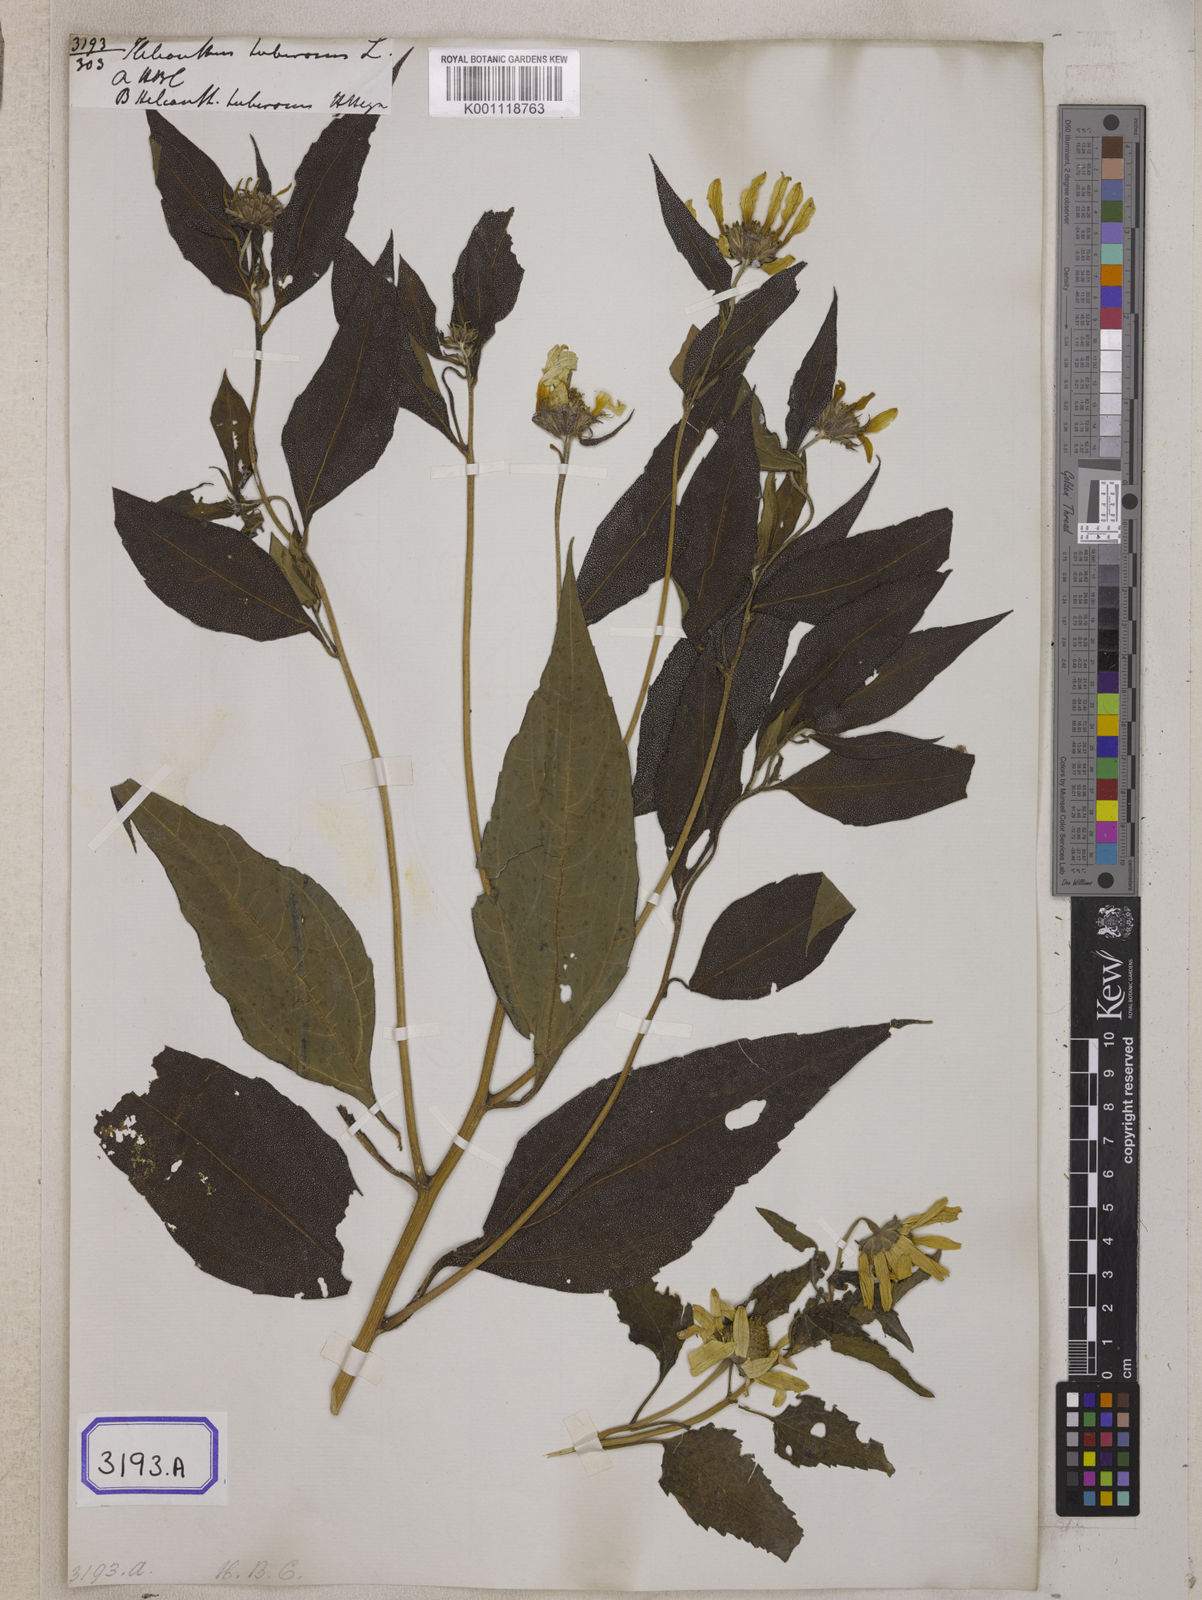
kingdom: Plantae
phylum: Tracheophyta
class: Magnoliopsida
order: Asterales
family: Asteraceae
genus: Helianthus
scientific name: Helianthus tuberosus
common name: Jerusalem artichoke
